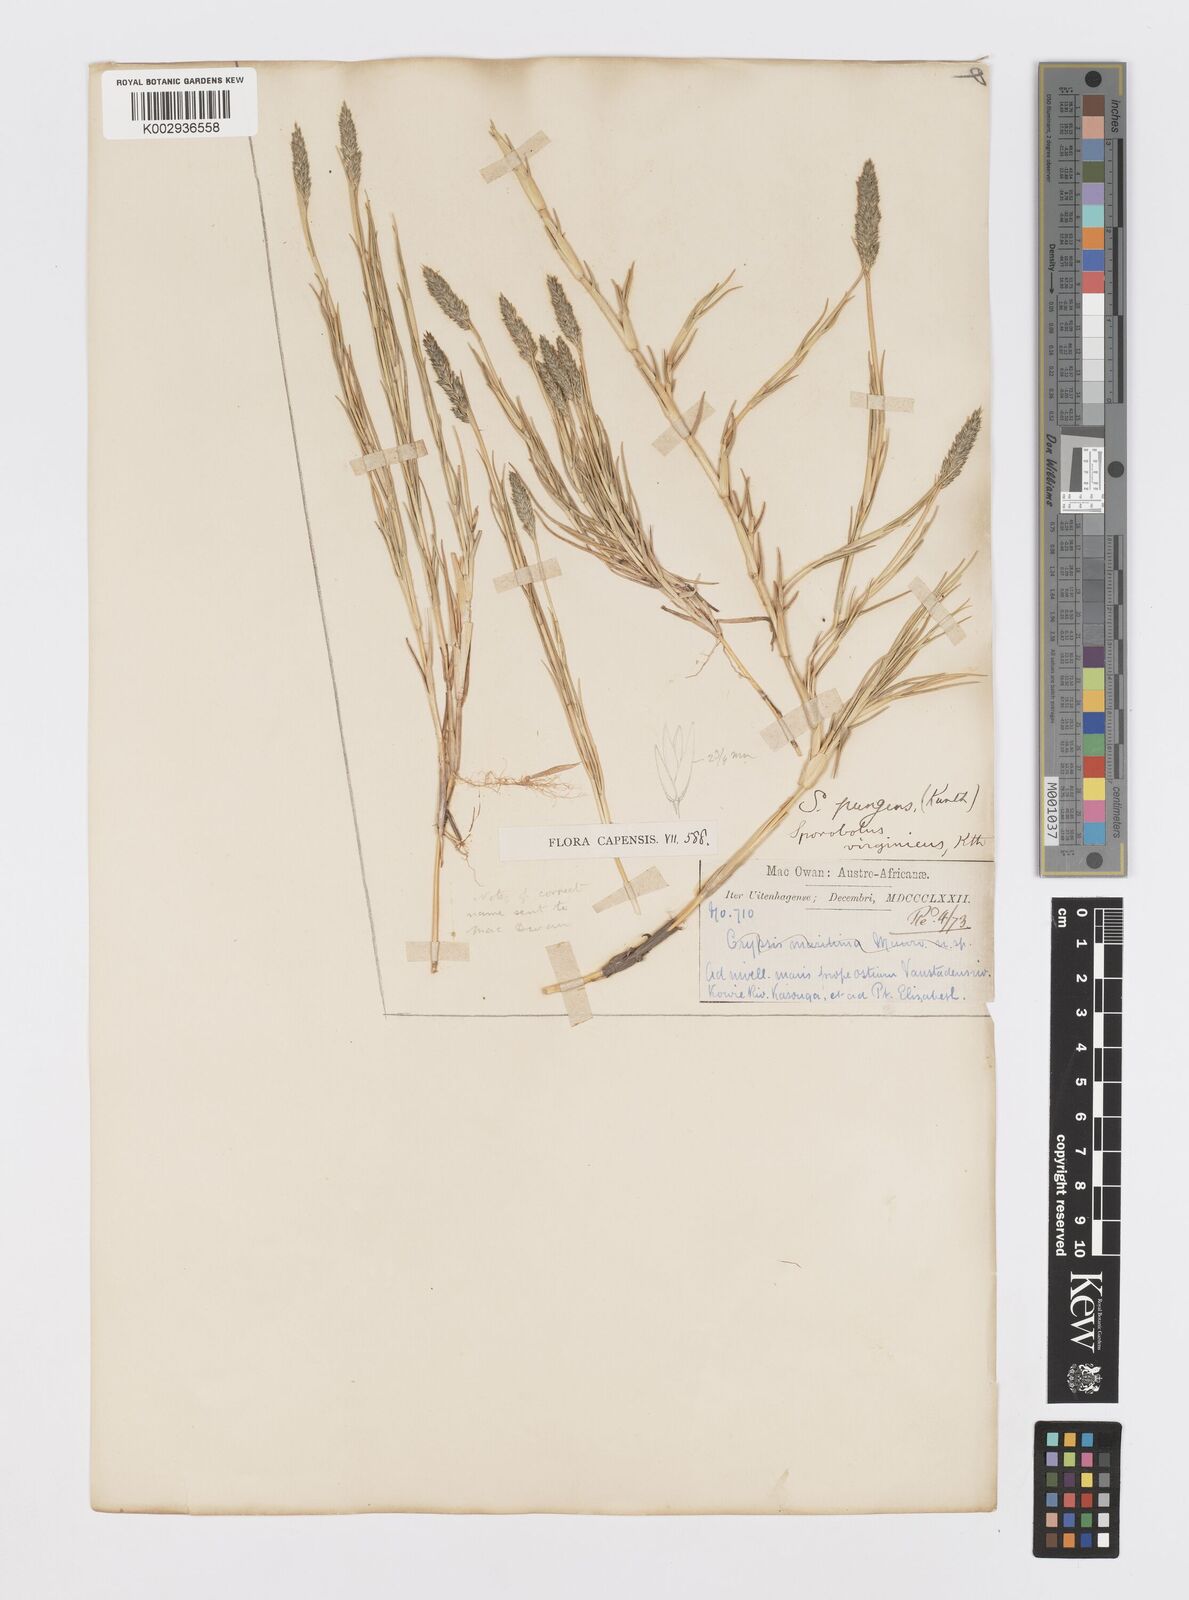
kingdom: Plantae
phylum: Tracheophyta
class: Liliopsida
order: Poales
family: Poaceae
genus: Sporobolus
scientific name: Sporobolus virginicus
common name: Beach dropseed
